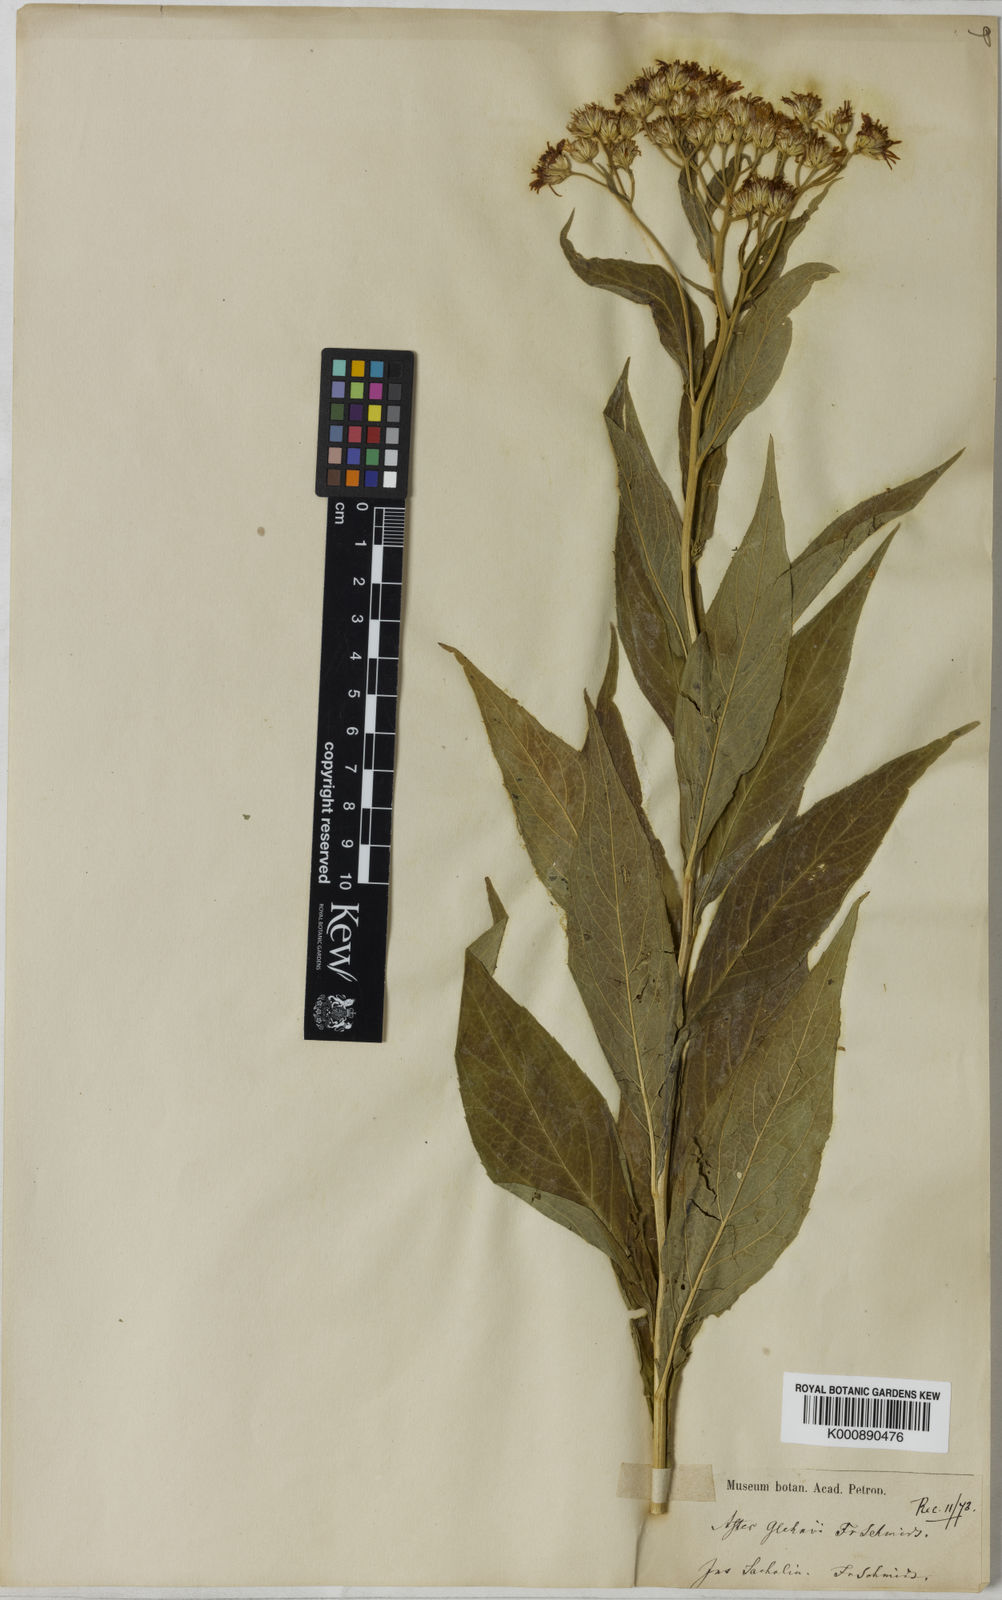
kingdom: Plantae
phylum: Tracheophyta
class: Magnoliopsida
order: Asterales
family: Asteraceae
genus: Kitamuria
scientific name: Kitamuria glehnii
